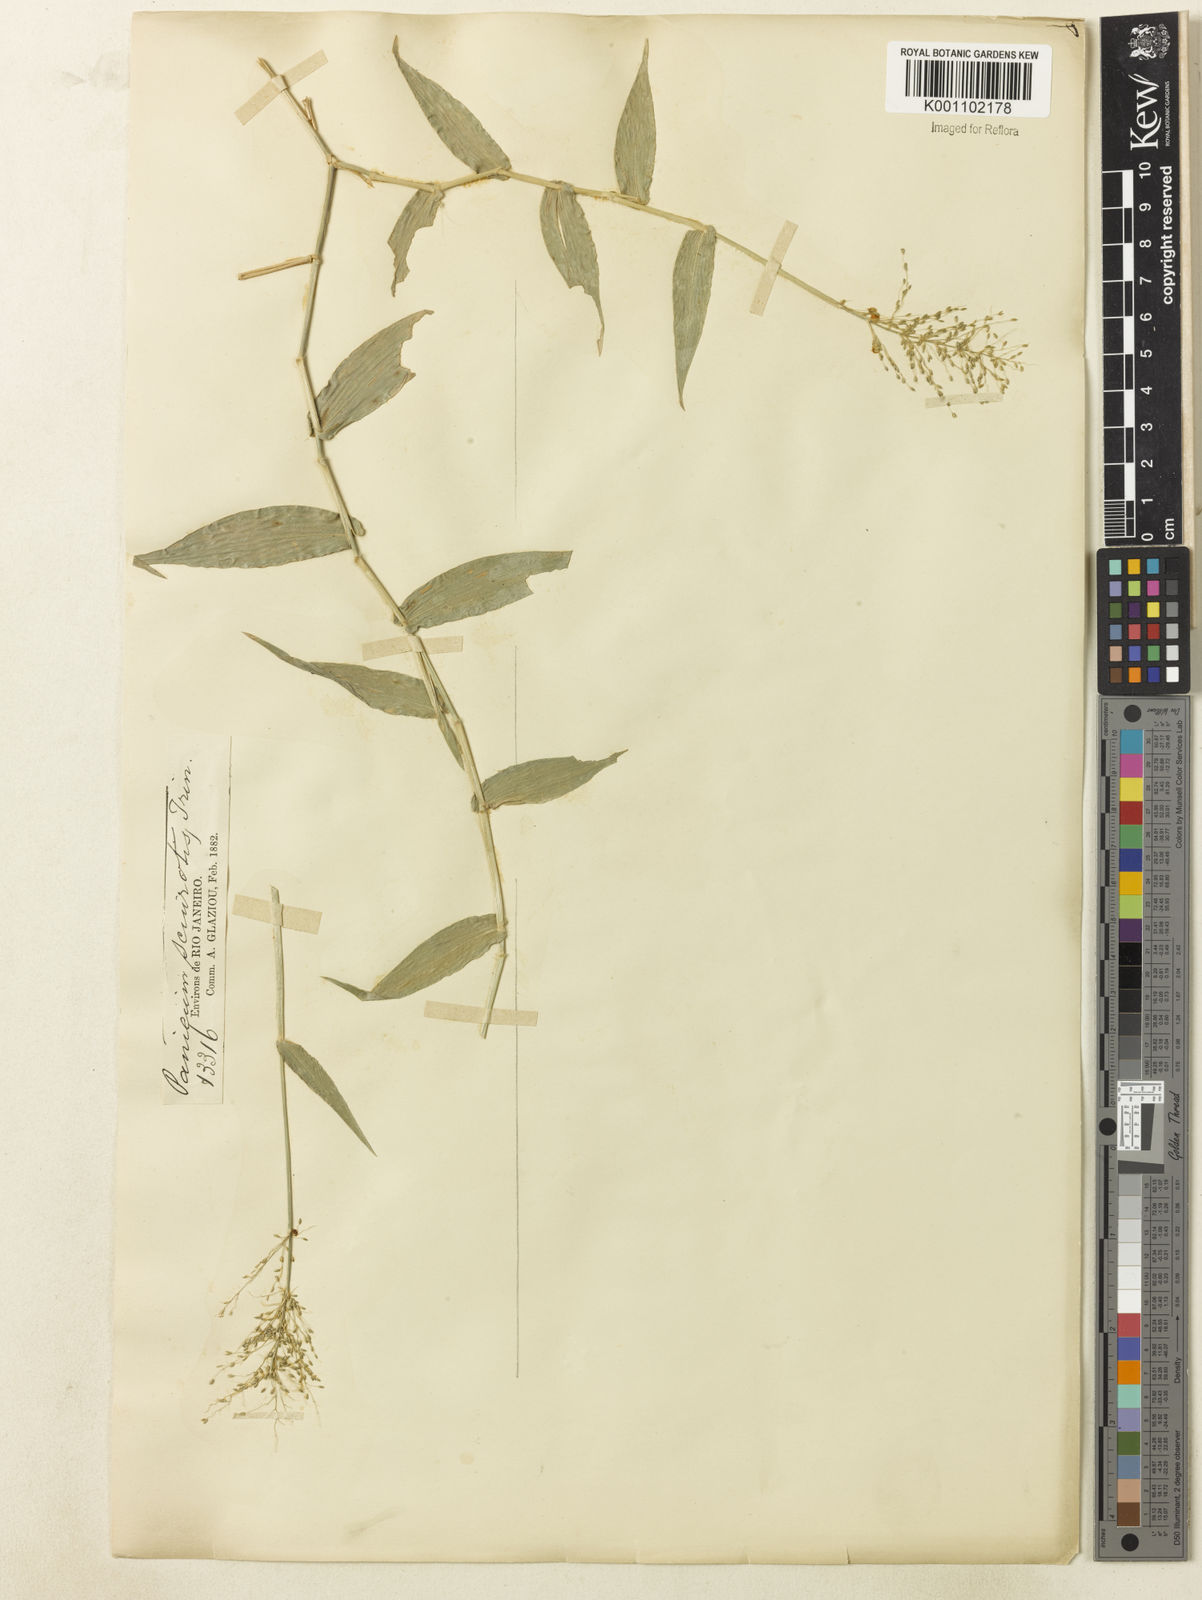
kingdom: Plantae
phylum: Tracheophyta
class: Liliopsida
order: Poales
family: Poaceae
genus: Dichanthelium
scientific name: Dichanthelium sciurotoides
